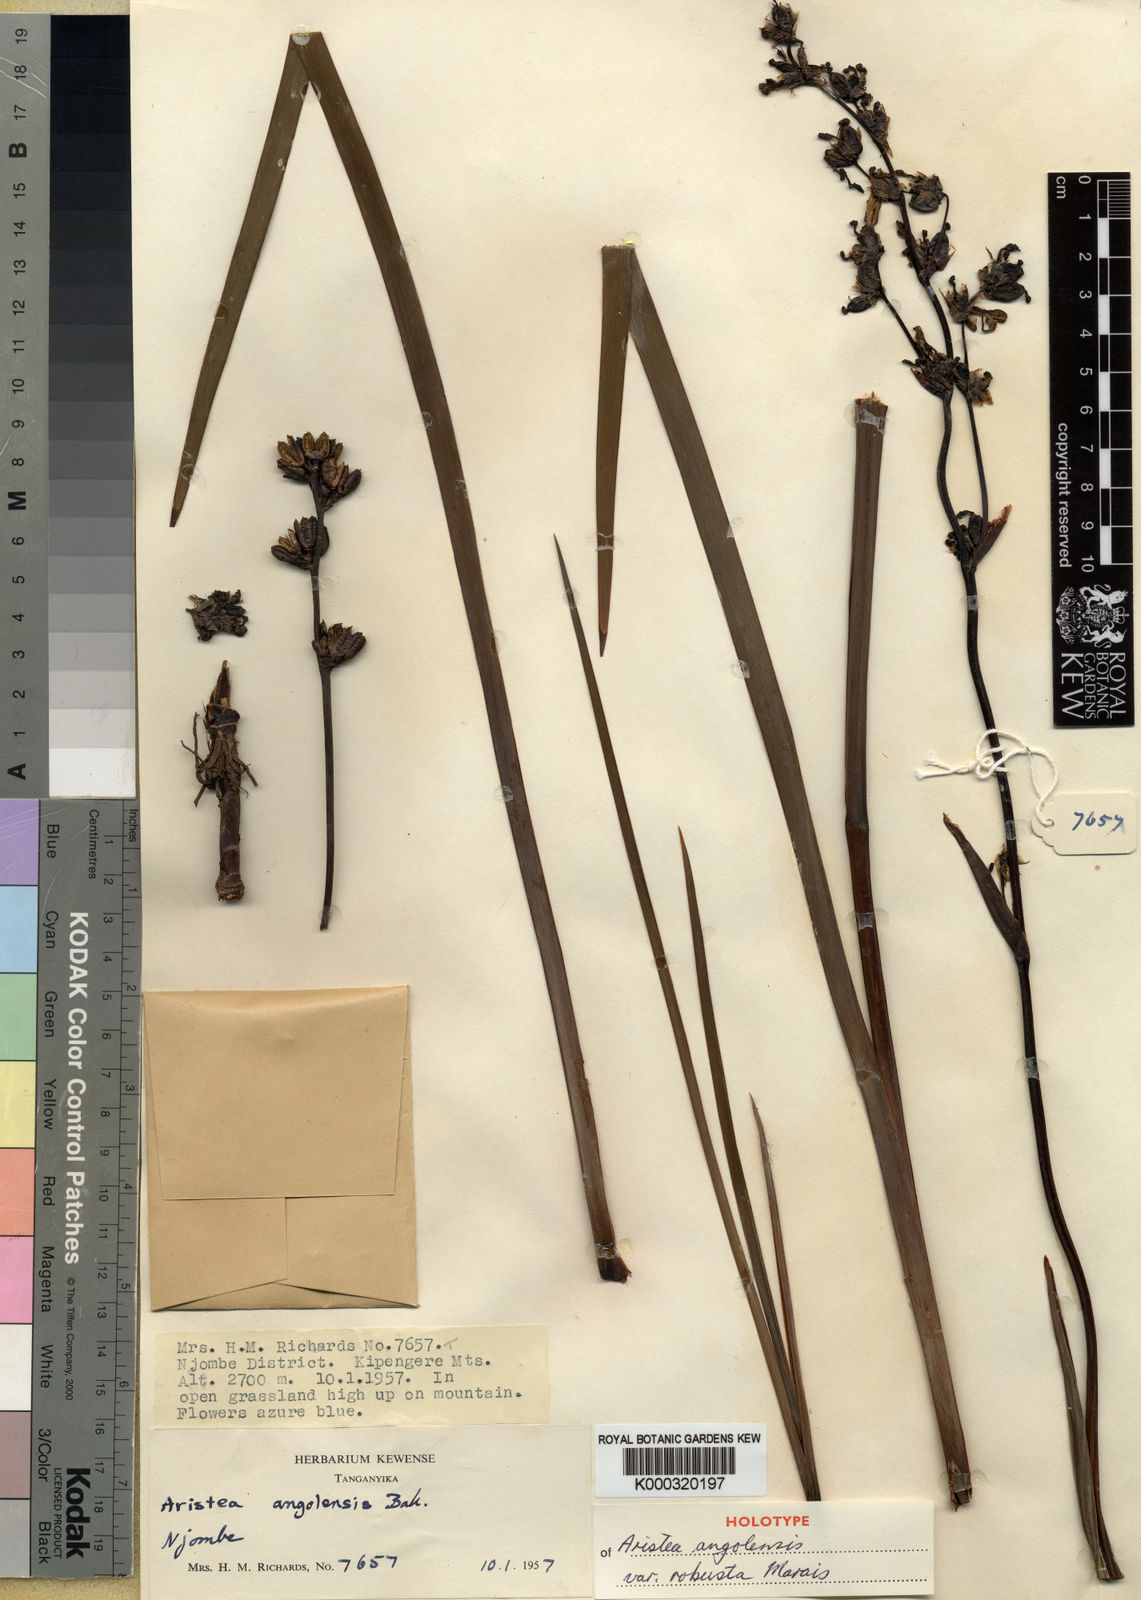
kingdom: Plantae
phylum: Tracheophyta
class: Liliopsida
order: Asparagales
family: Iridaceae
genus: Aristea
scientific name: Aristea angolensis
